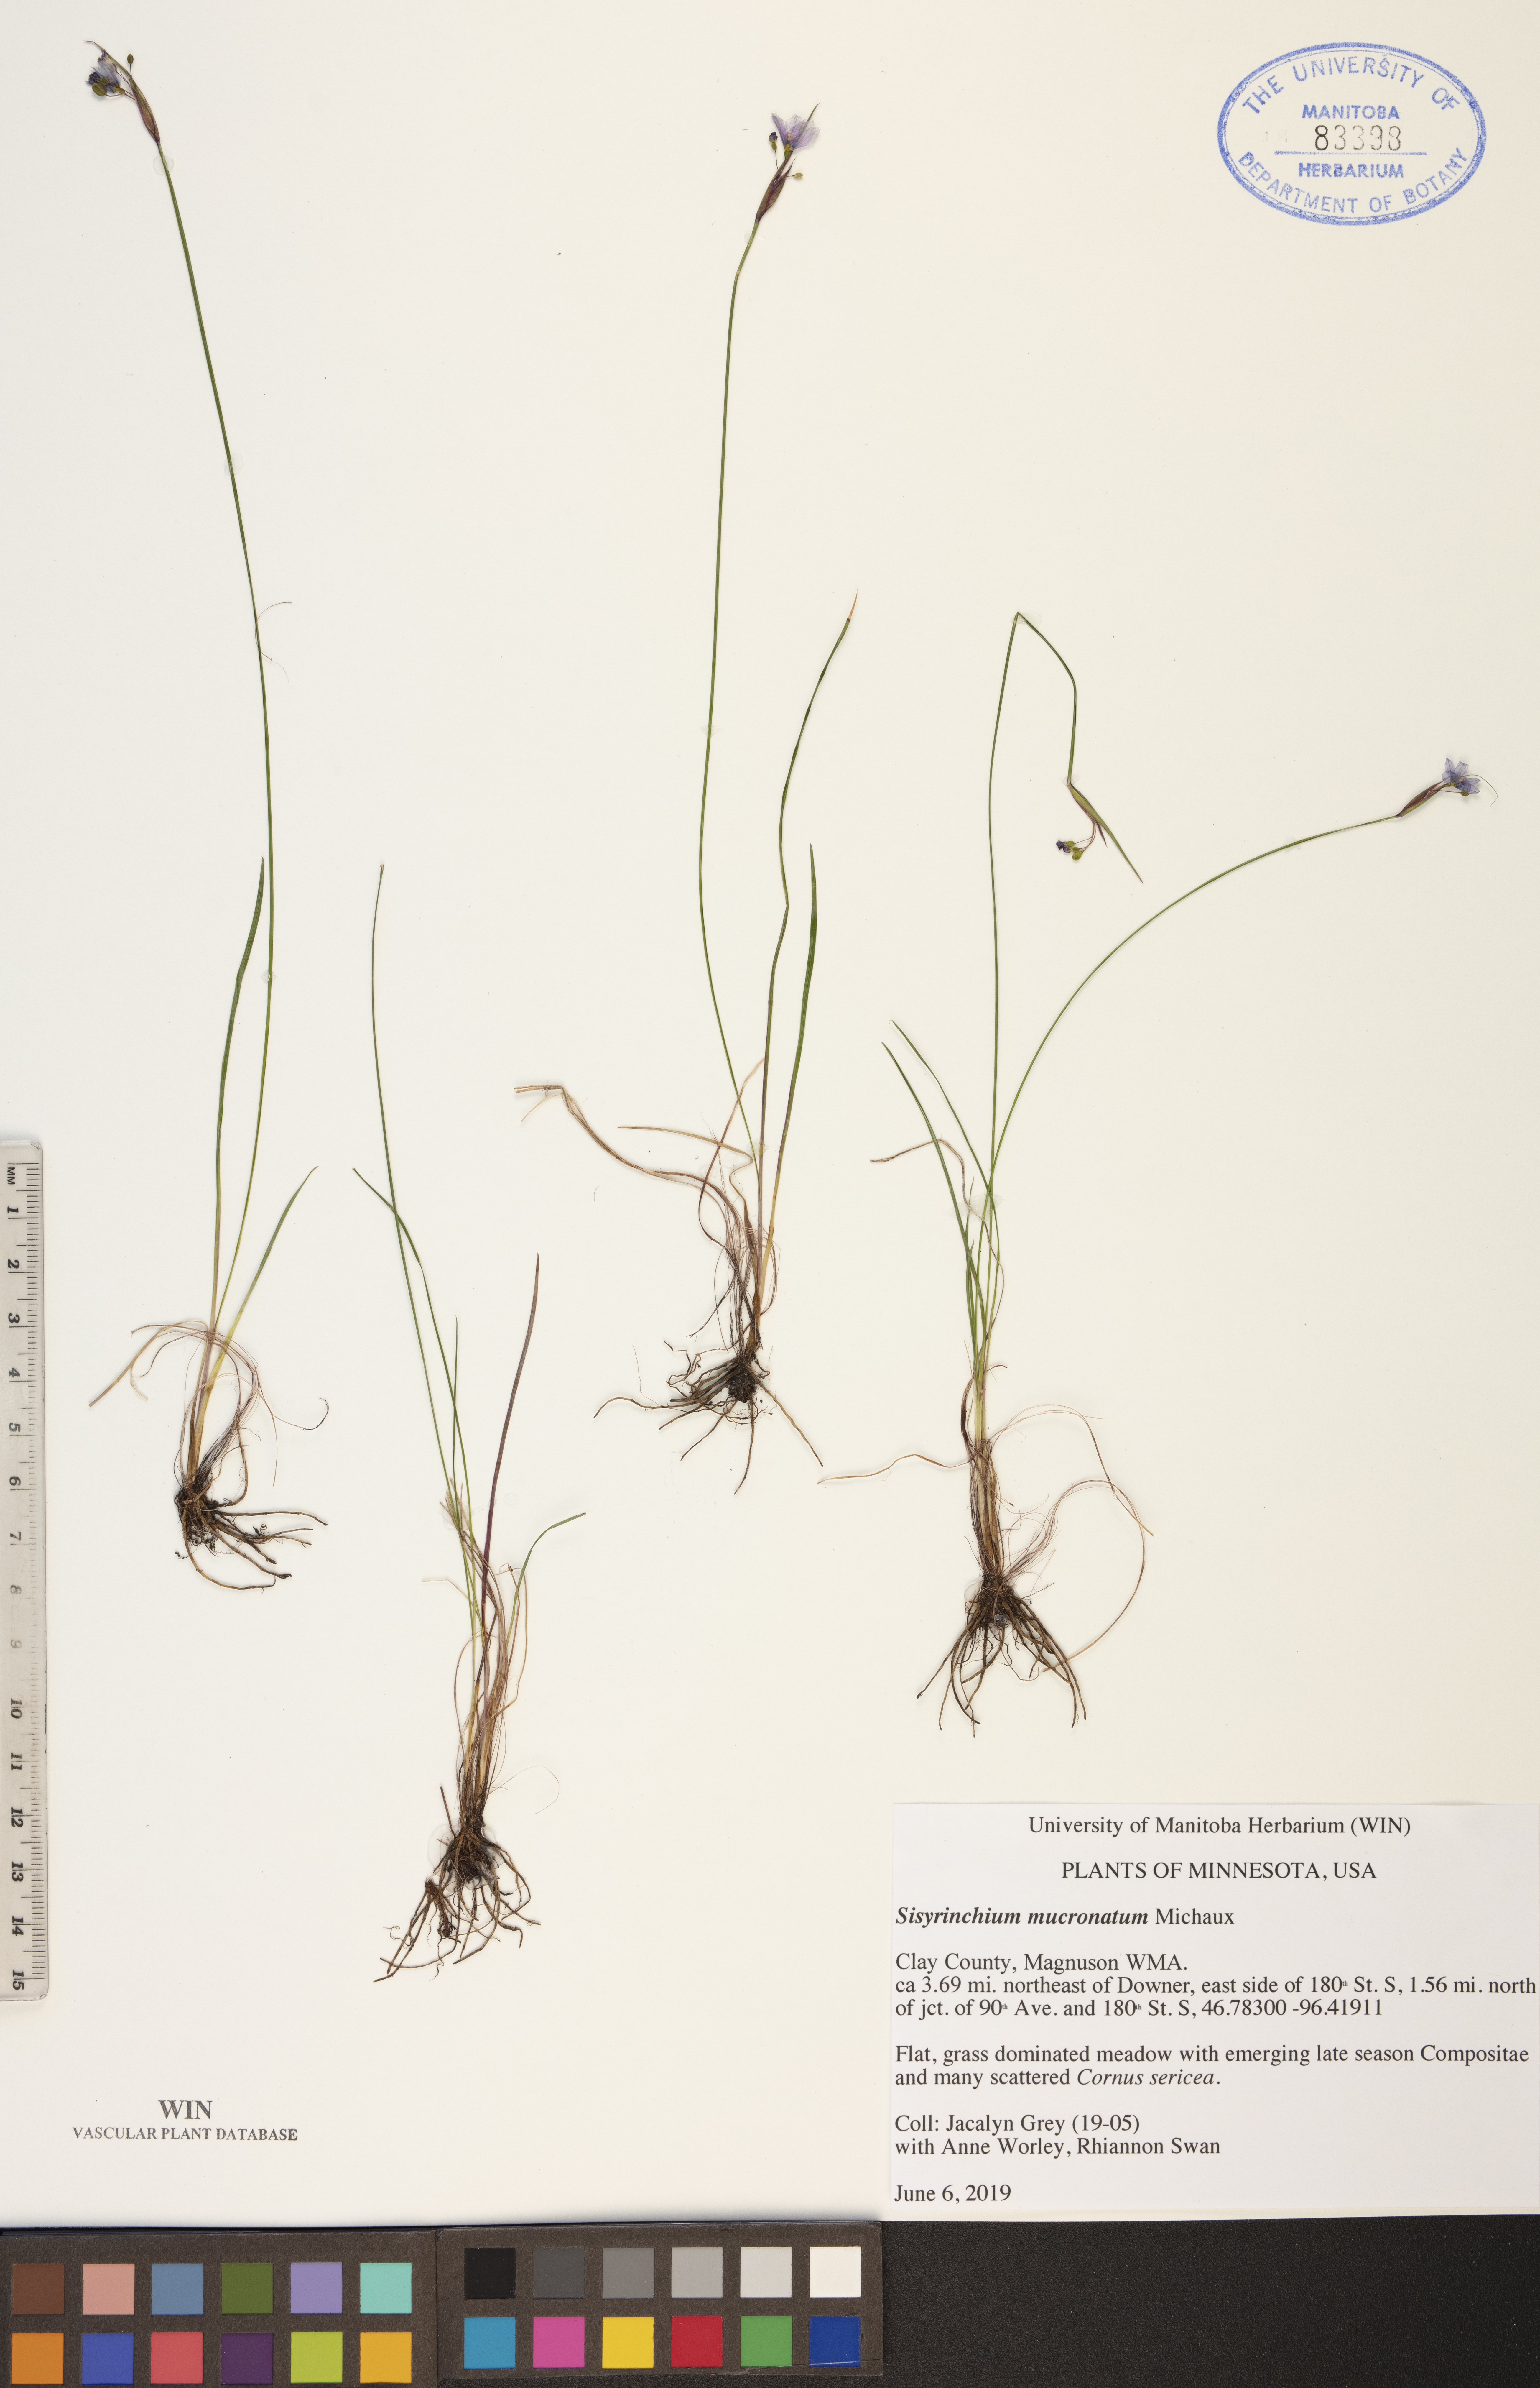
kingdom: Plantae
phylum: Tracheophyta
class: Liliopsida
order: Asparagales
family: Iridaceae
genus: Sisyrinchium
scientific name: Sisyrinchium mucronatum
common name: Eastern blue-eyed-grass
